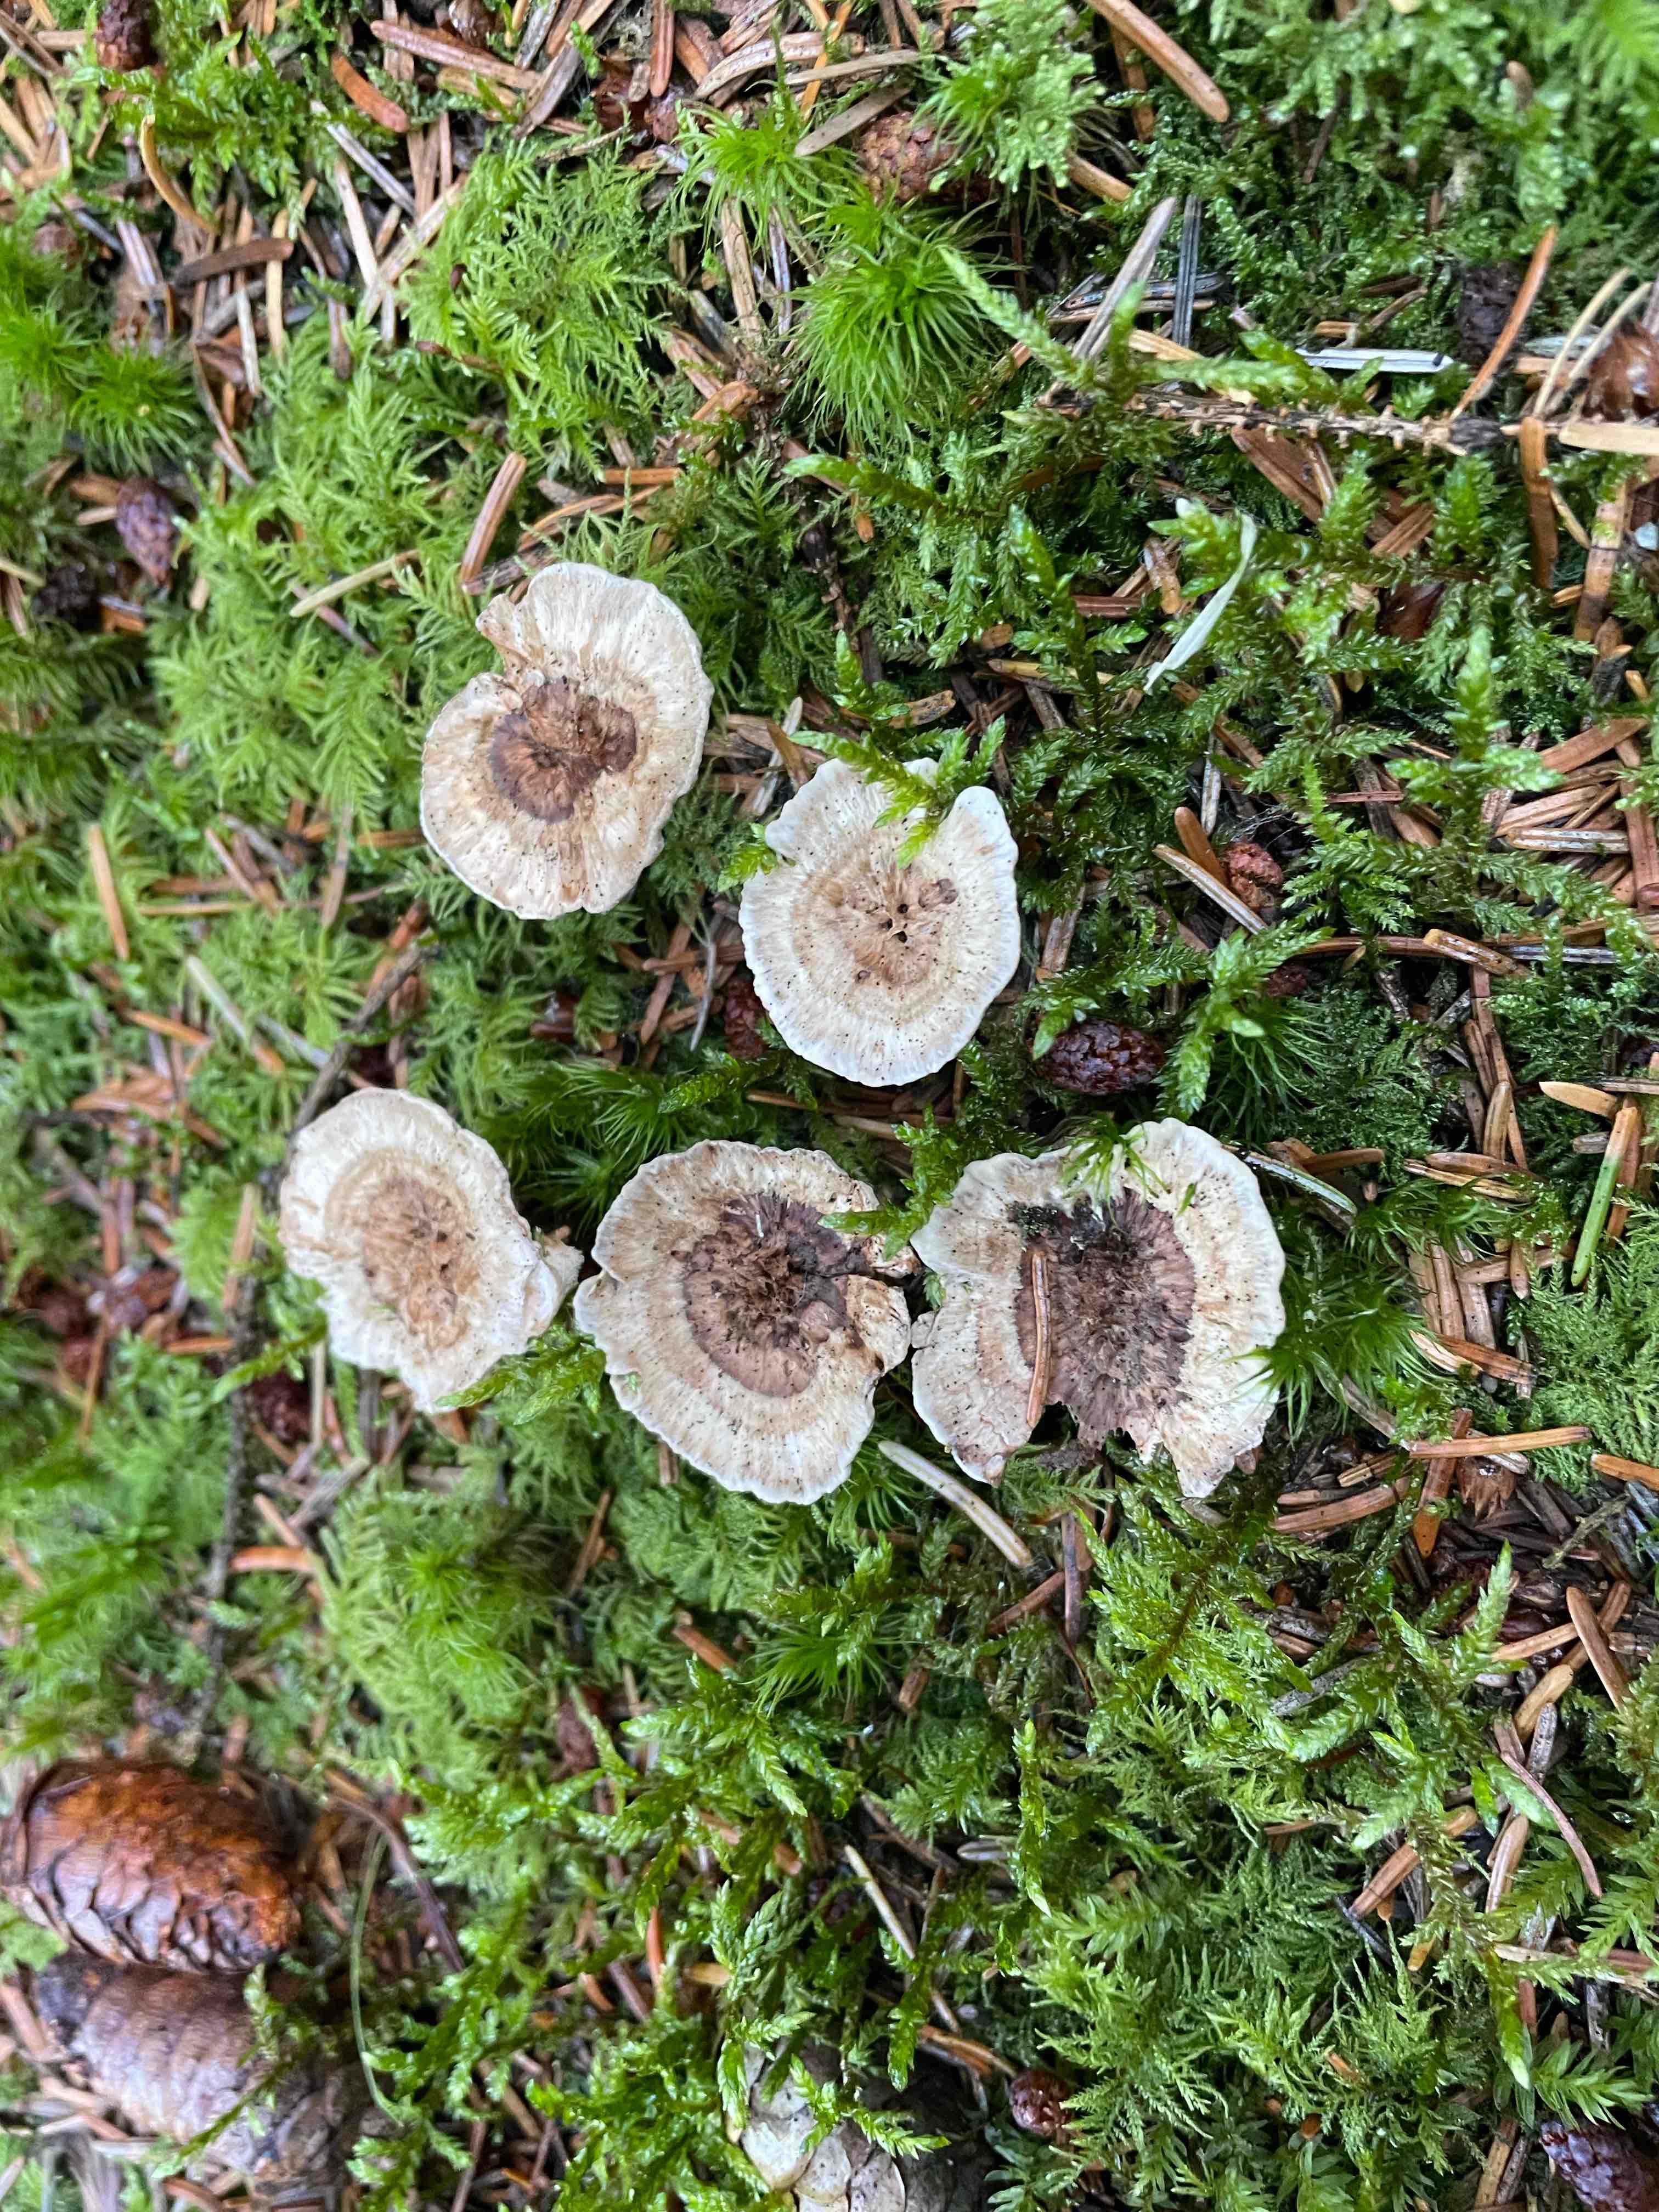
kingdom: Fungi
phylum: Basidiomycota
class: Agaricomycetes
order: Thelephorales
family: Thelephoraceae
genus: Phellodon
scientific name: Phellodon tomentosus
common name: tragtformet duftpigsvamp
